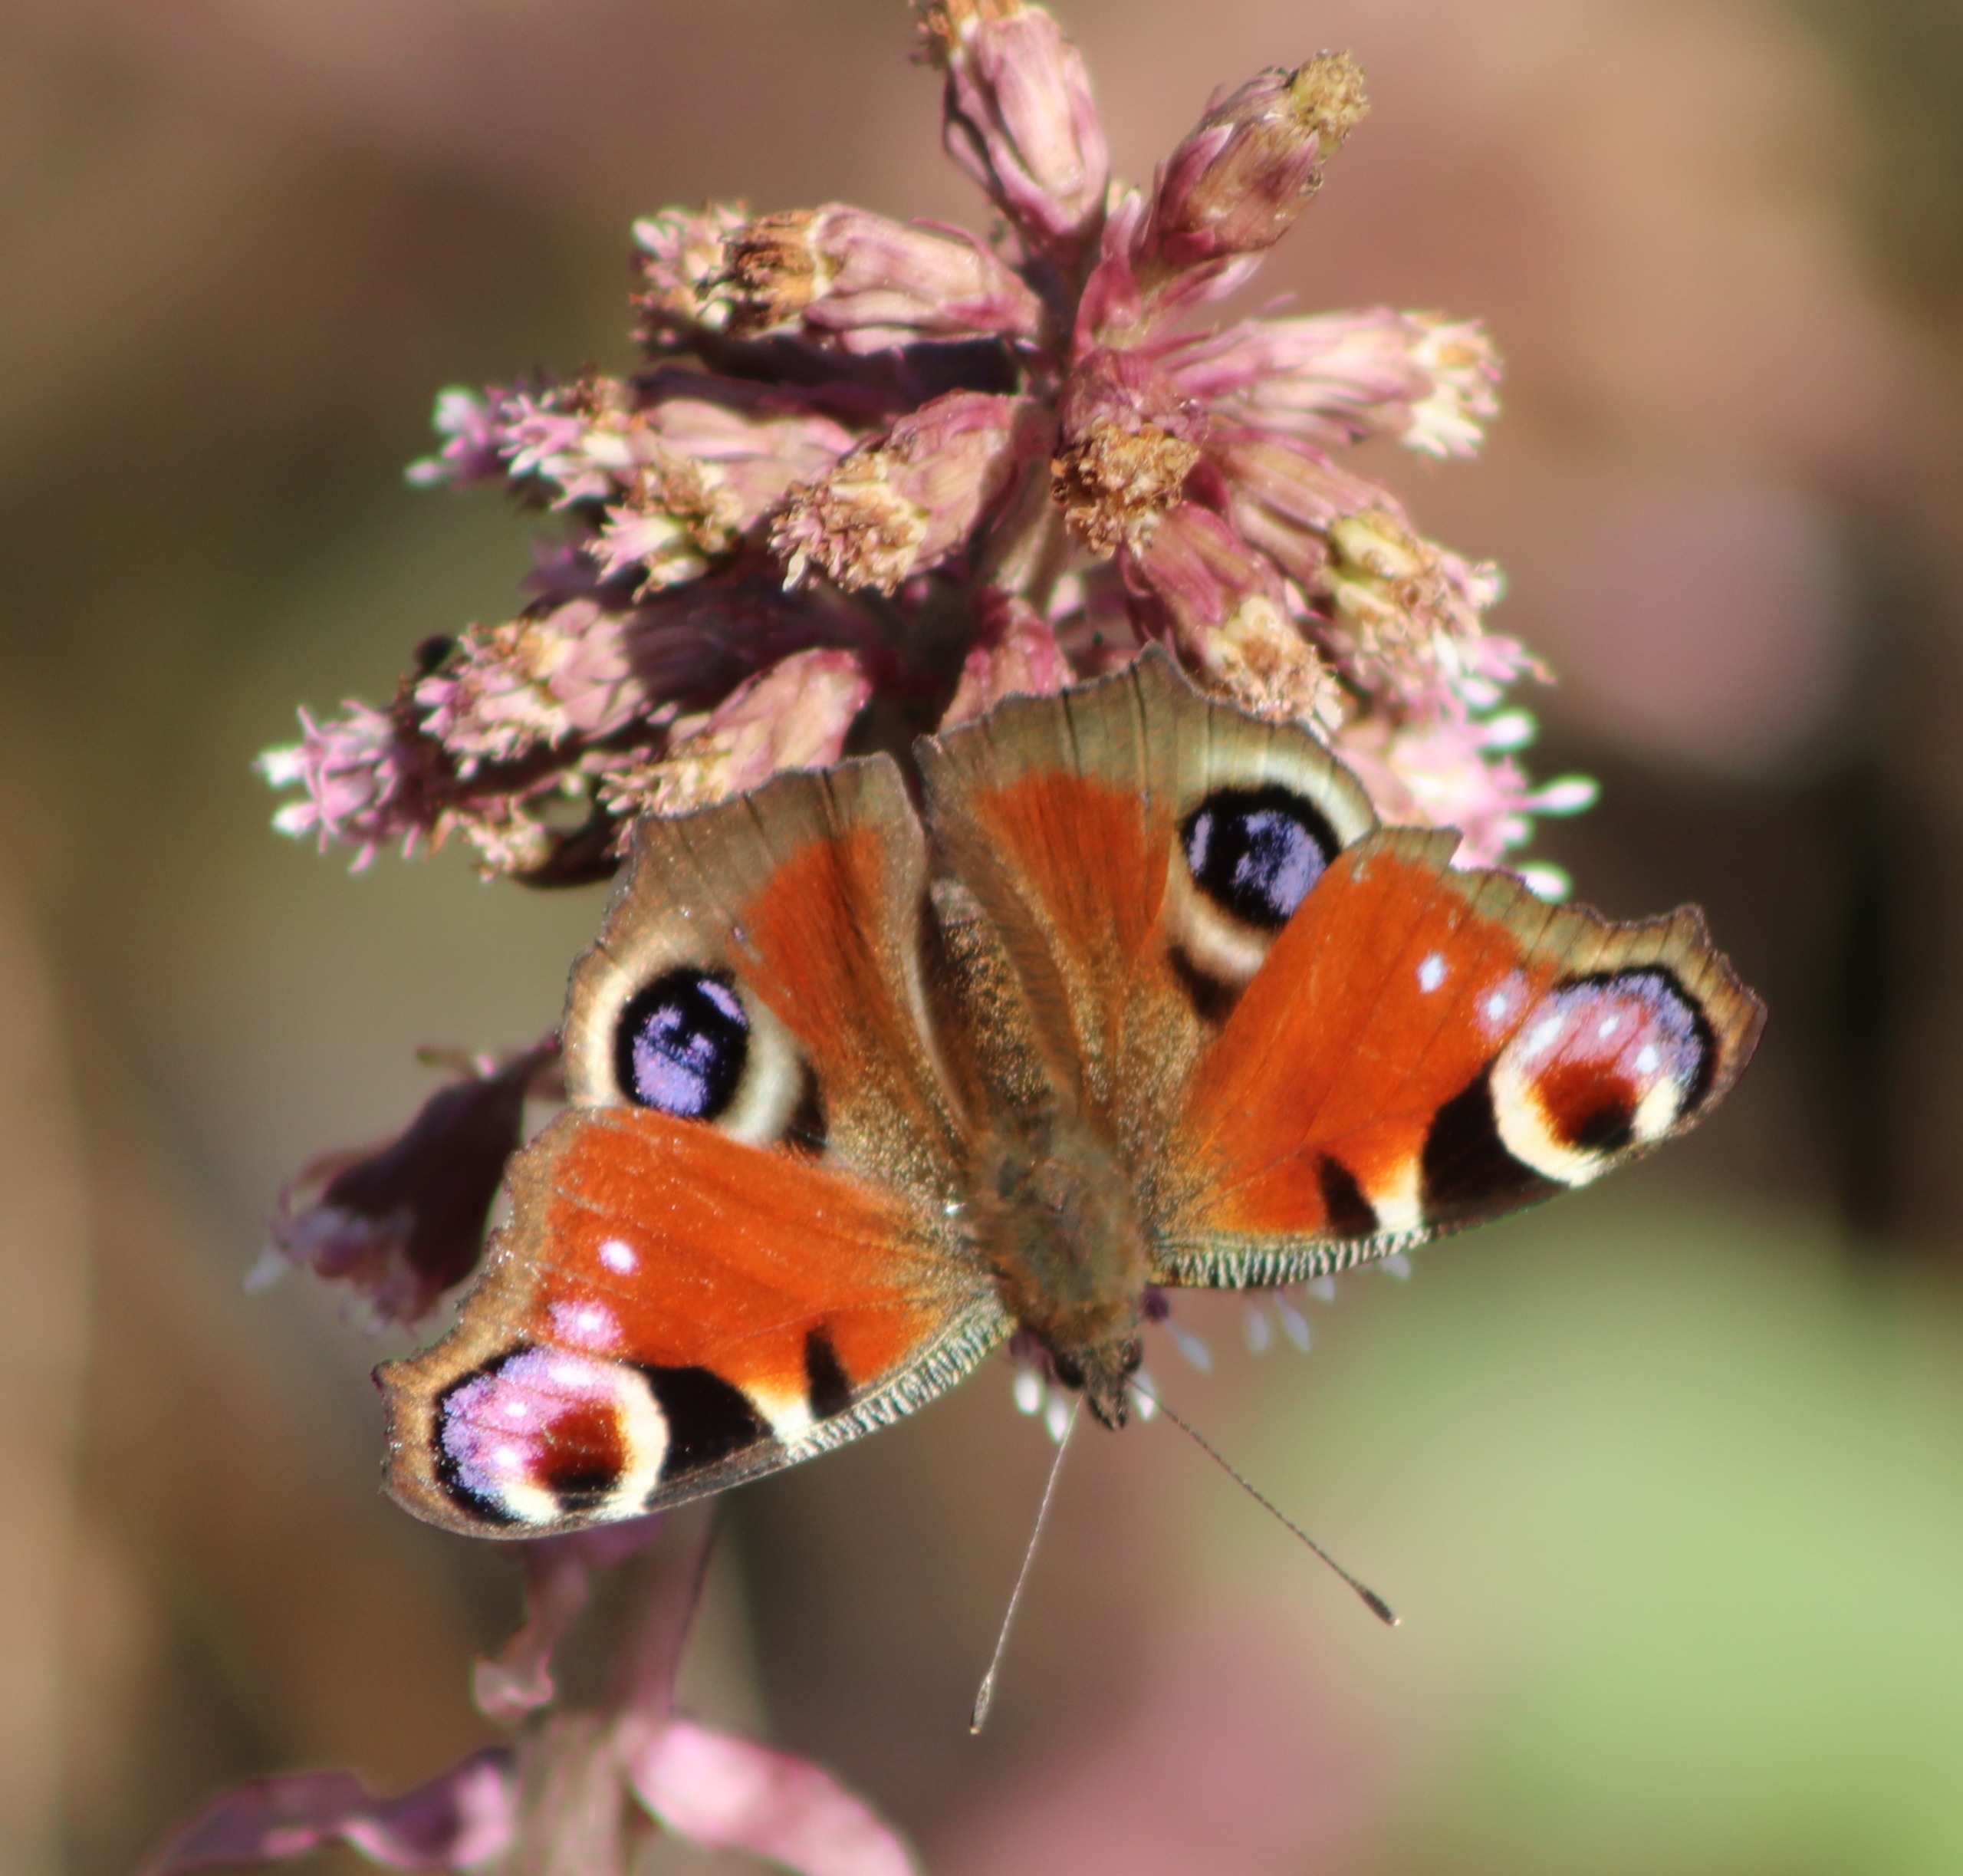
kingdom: Animalia
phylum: Arthropoda
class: Insecta
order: Lepidoptera
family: Nymphalidae
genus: Aglais
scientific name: Aglais io
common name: Dagpåfugleøje
